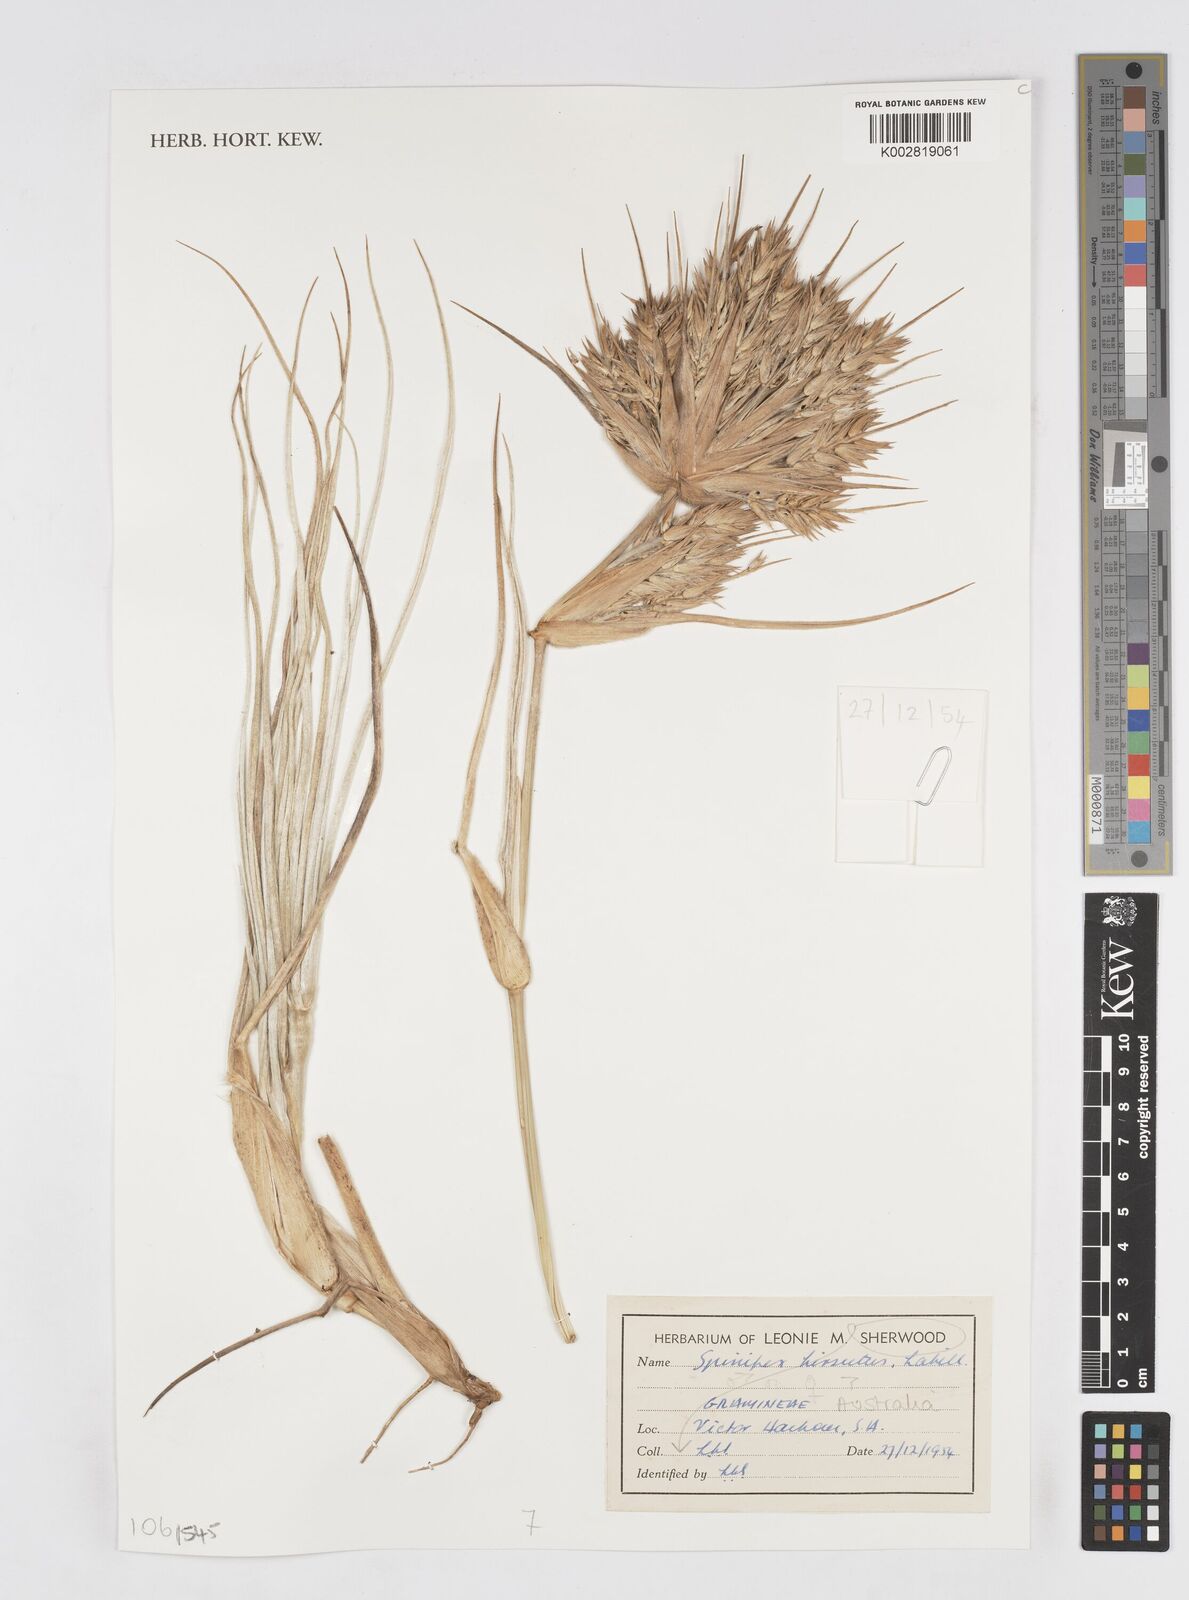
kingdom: Plantae
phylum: Tracheophyta
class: Liliopsida
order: Poales
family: Poaceae
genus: Spinifex
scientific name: Spinifex hirsutus
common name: Hairy spinifex
